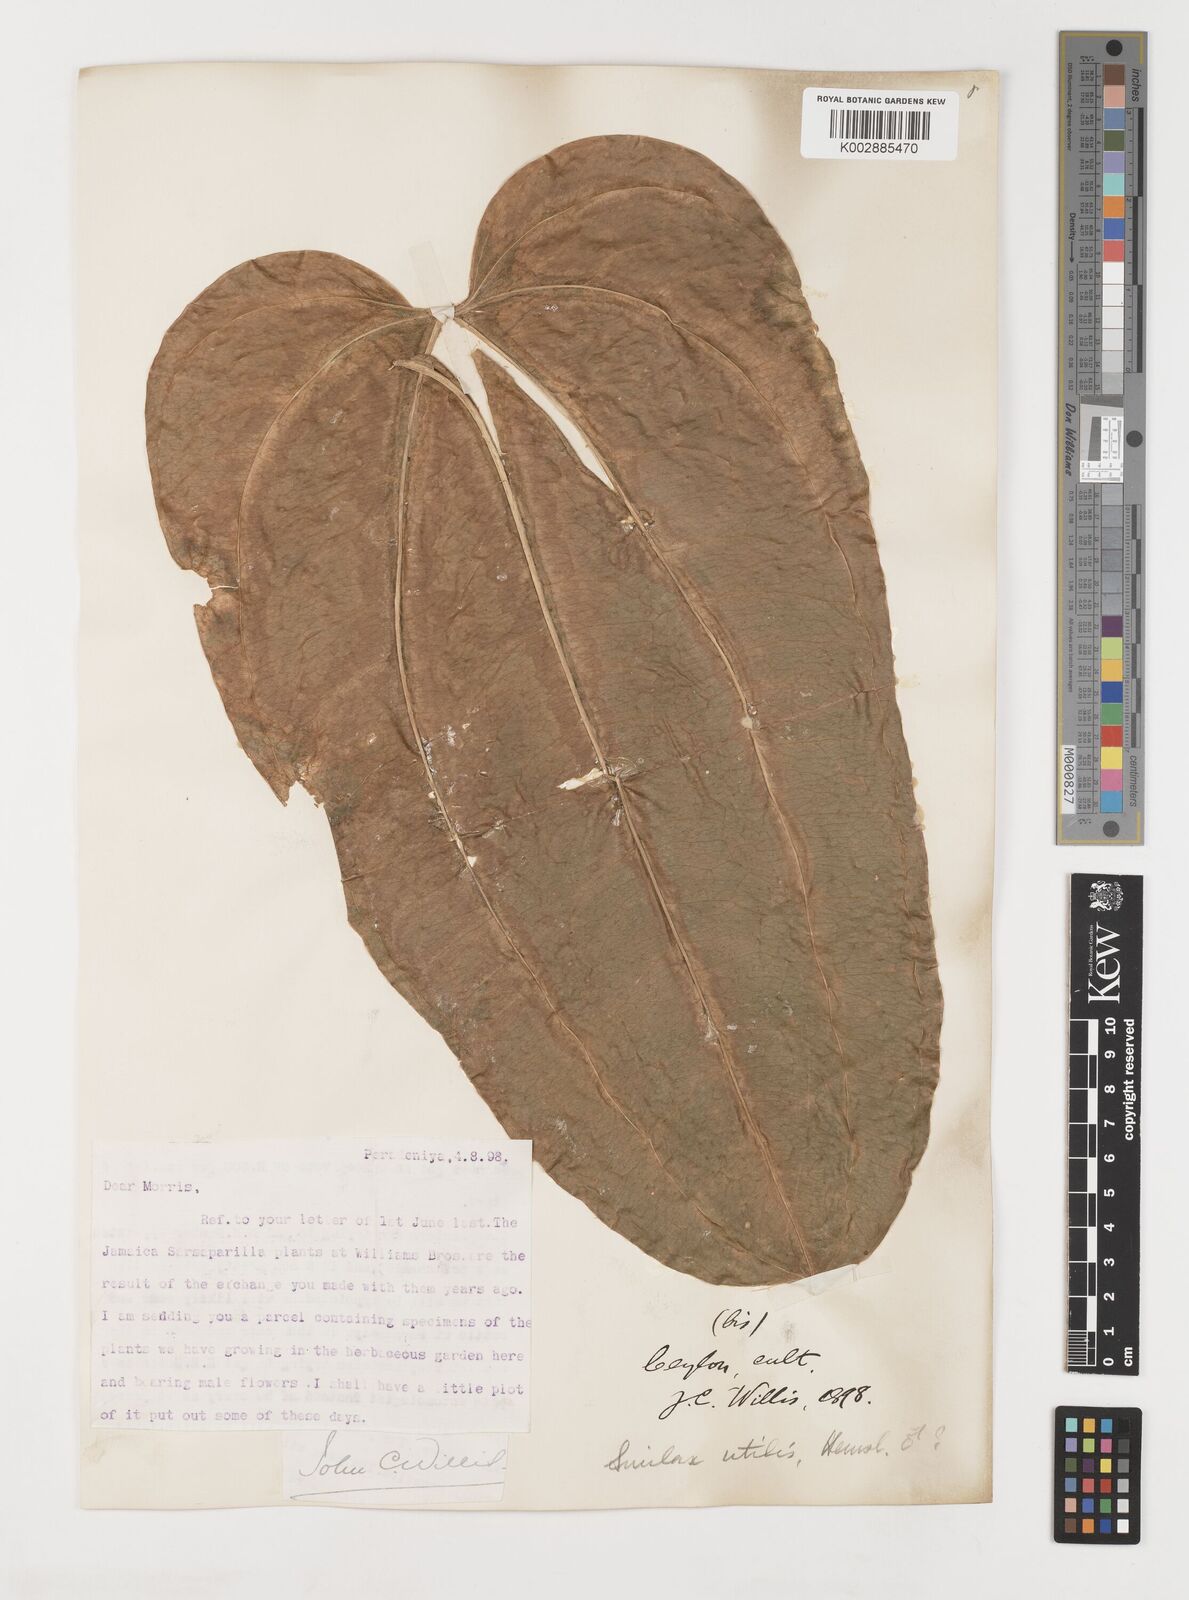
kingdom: Plantae
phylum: Tracheophyta
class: Liliopsida
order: Liliales
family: Smilacaceae
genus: Smilax
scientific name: Smilax ornata
